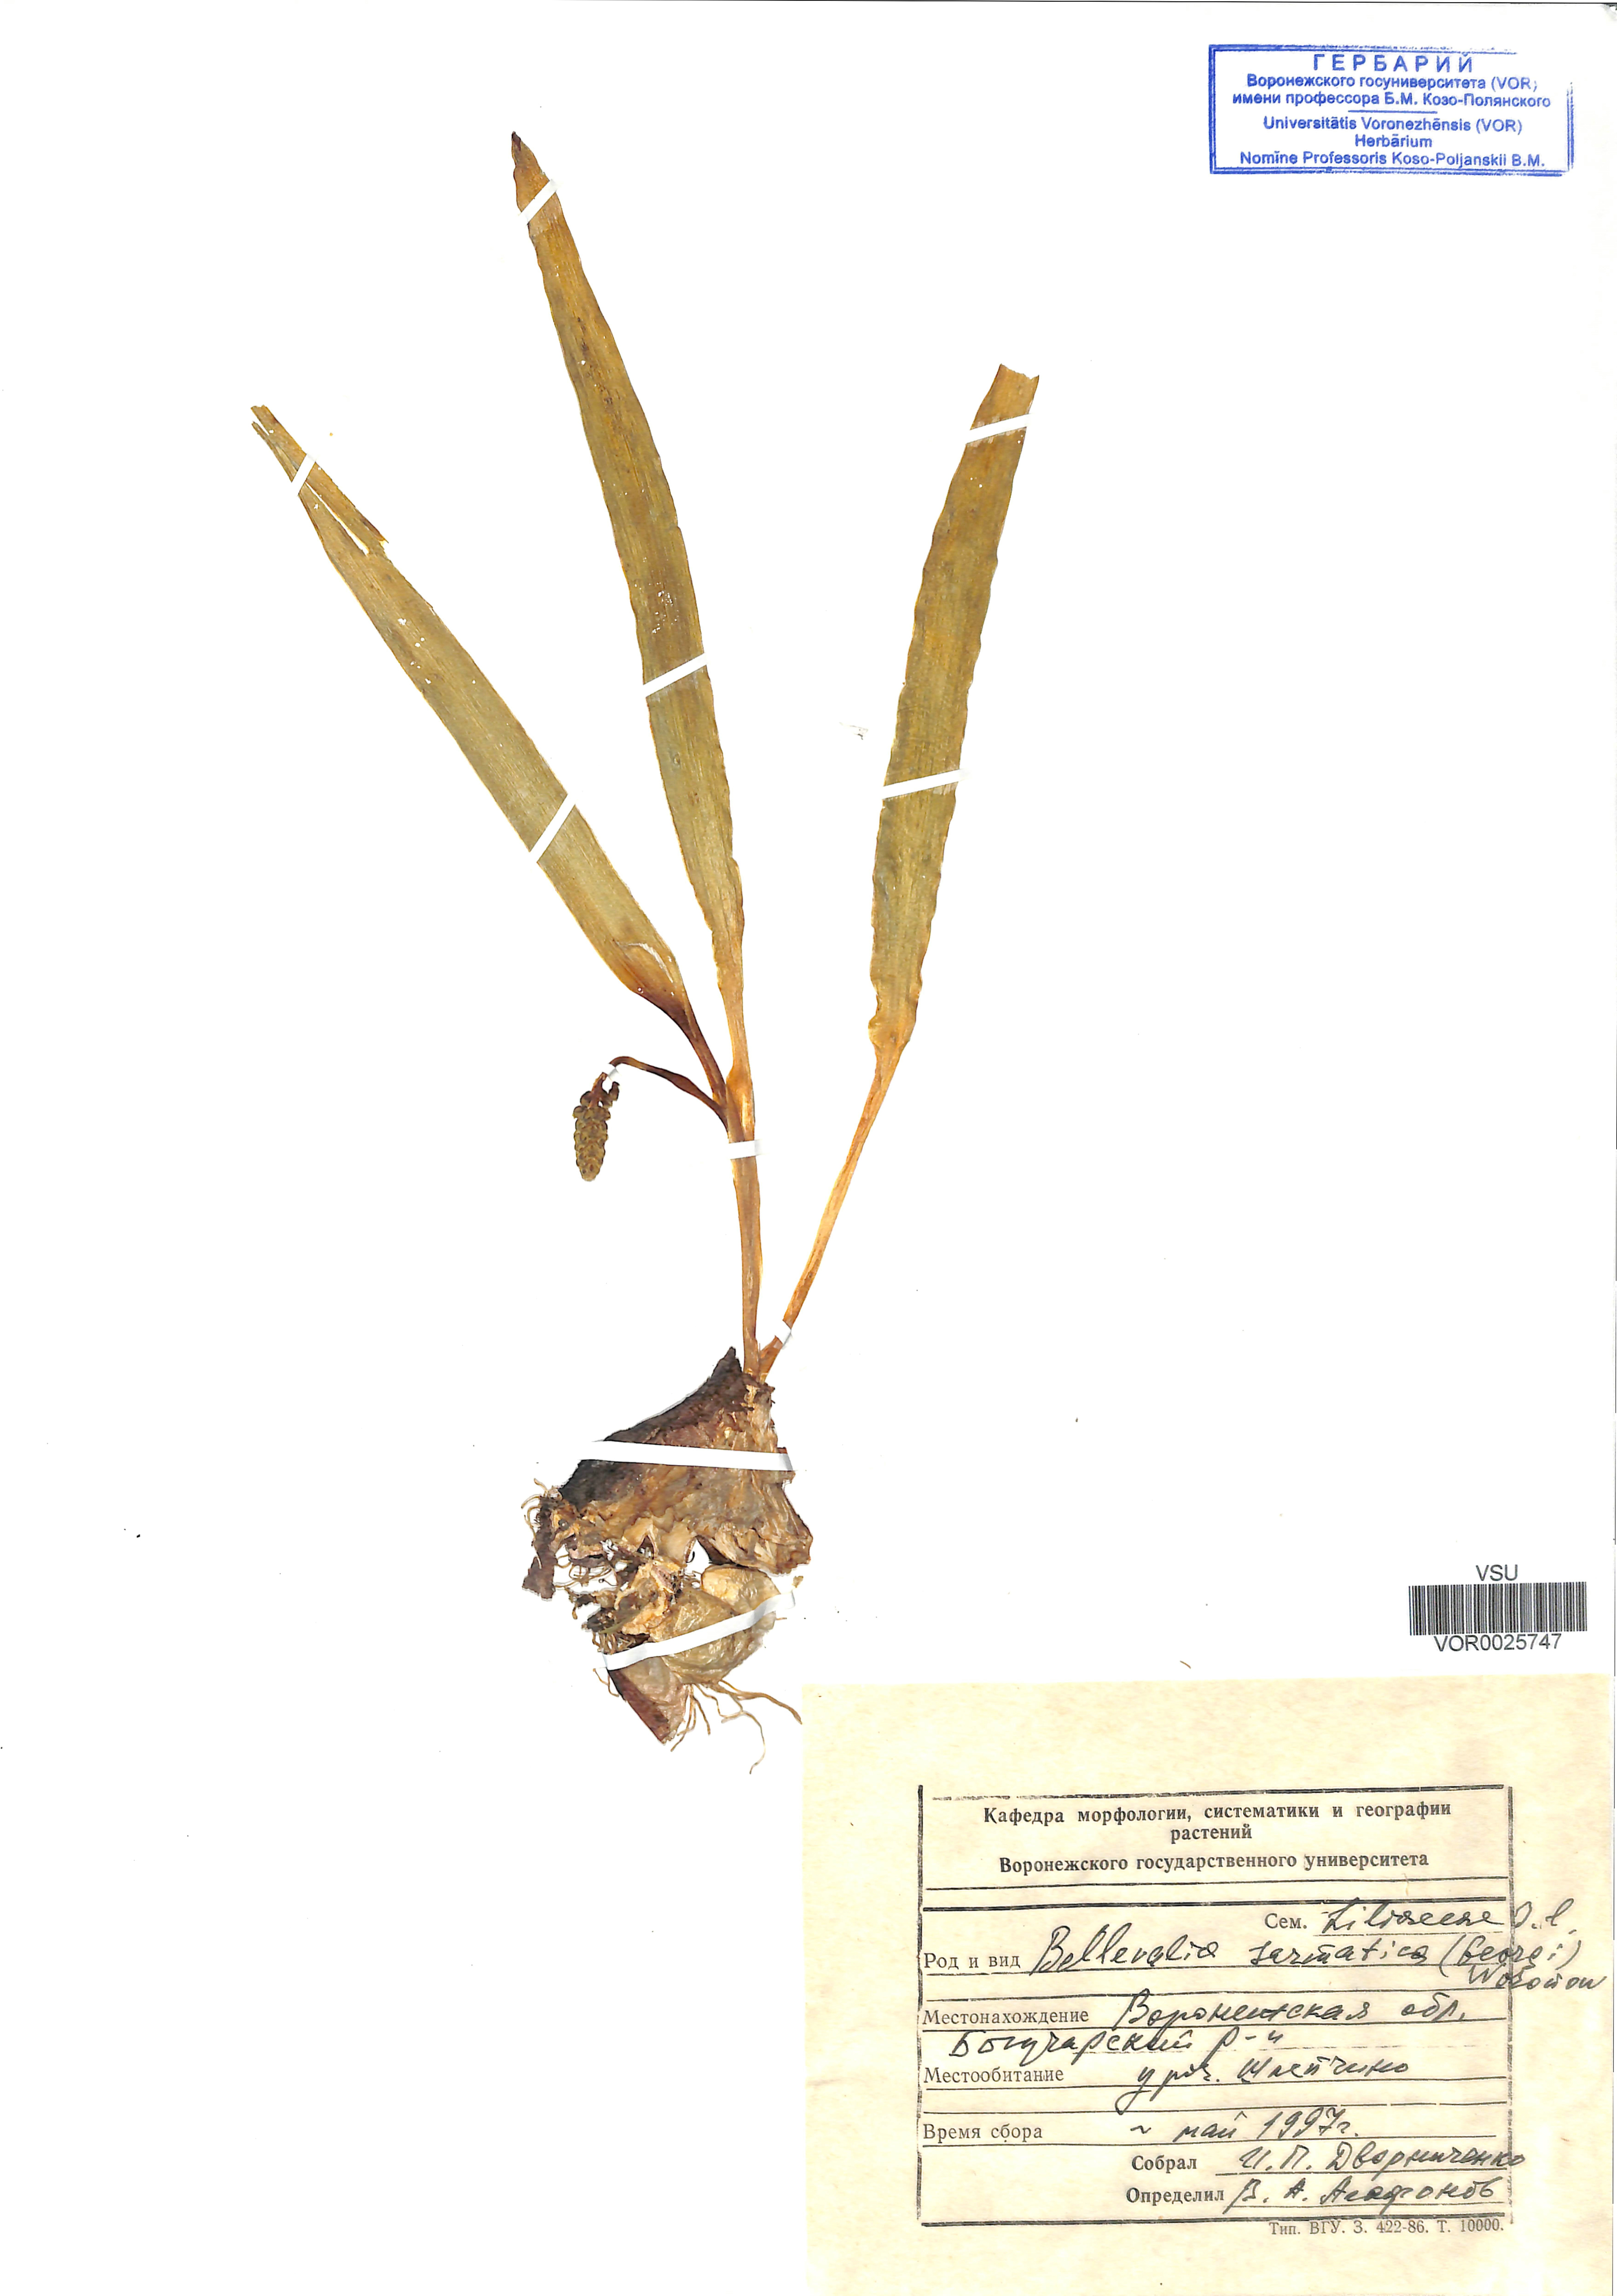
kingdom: Plantae
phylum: Tracheophyta
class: Liliopsida
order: Asparagales
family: Asparagaceae
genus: Bellevalia
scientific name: Bellevalia speciosa
